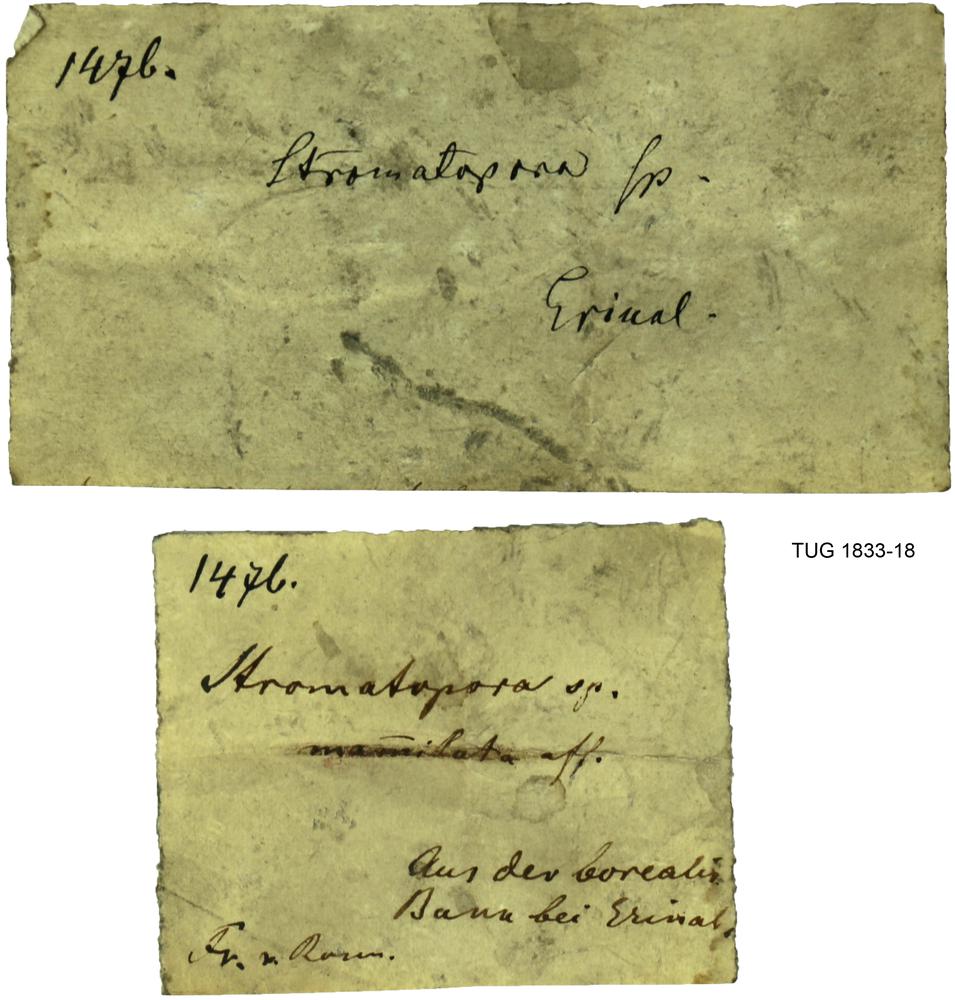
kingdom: Animalia
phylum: Porifera
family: Clathrodictyidae
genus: Clathrodictyon
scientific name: Clathrodictyon boreale
